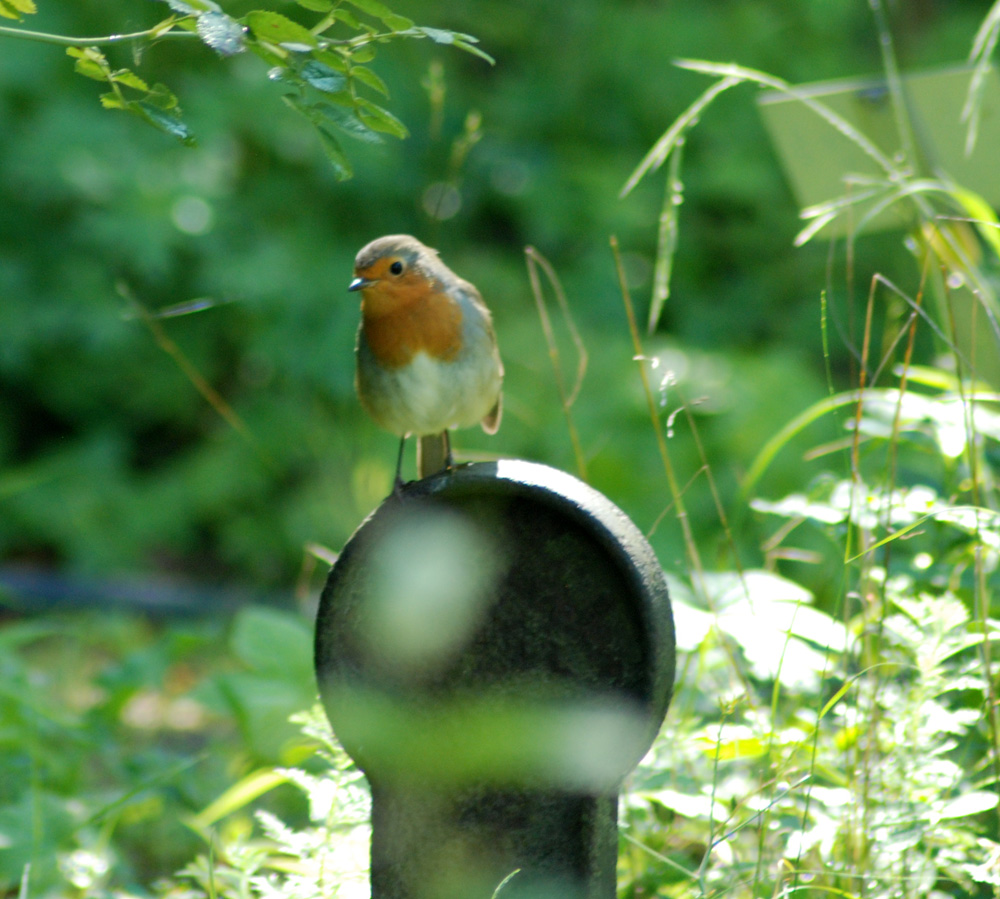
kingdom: Animalia
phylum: Chordata
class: Aves
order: Passeriformes
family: Muscicapidae
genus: Erithacus
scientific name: Erithacus rubecula
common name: European robin
